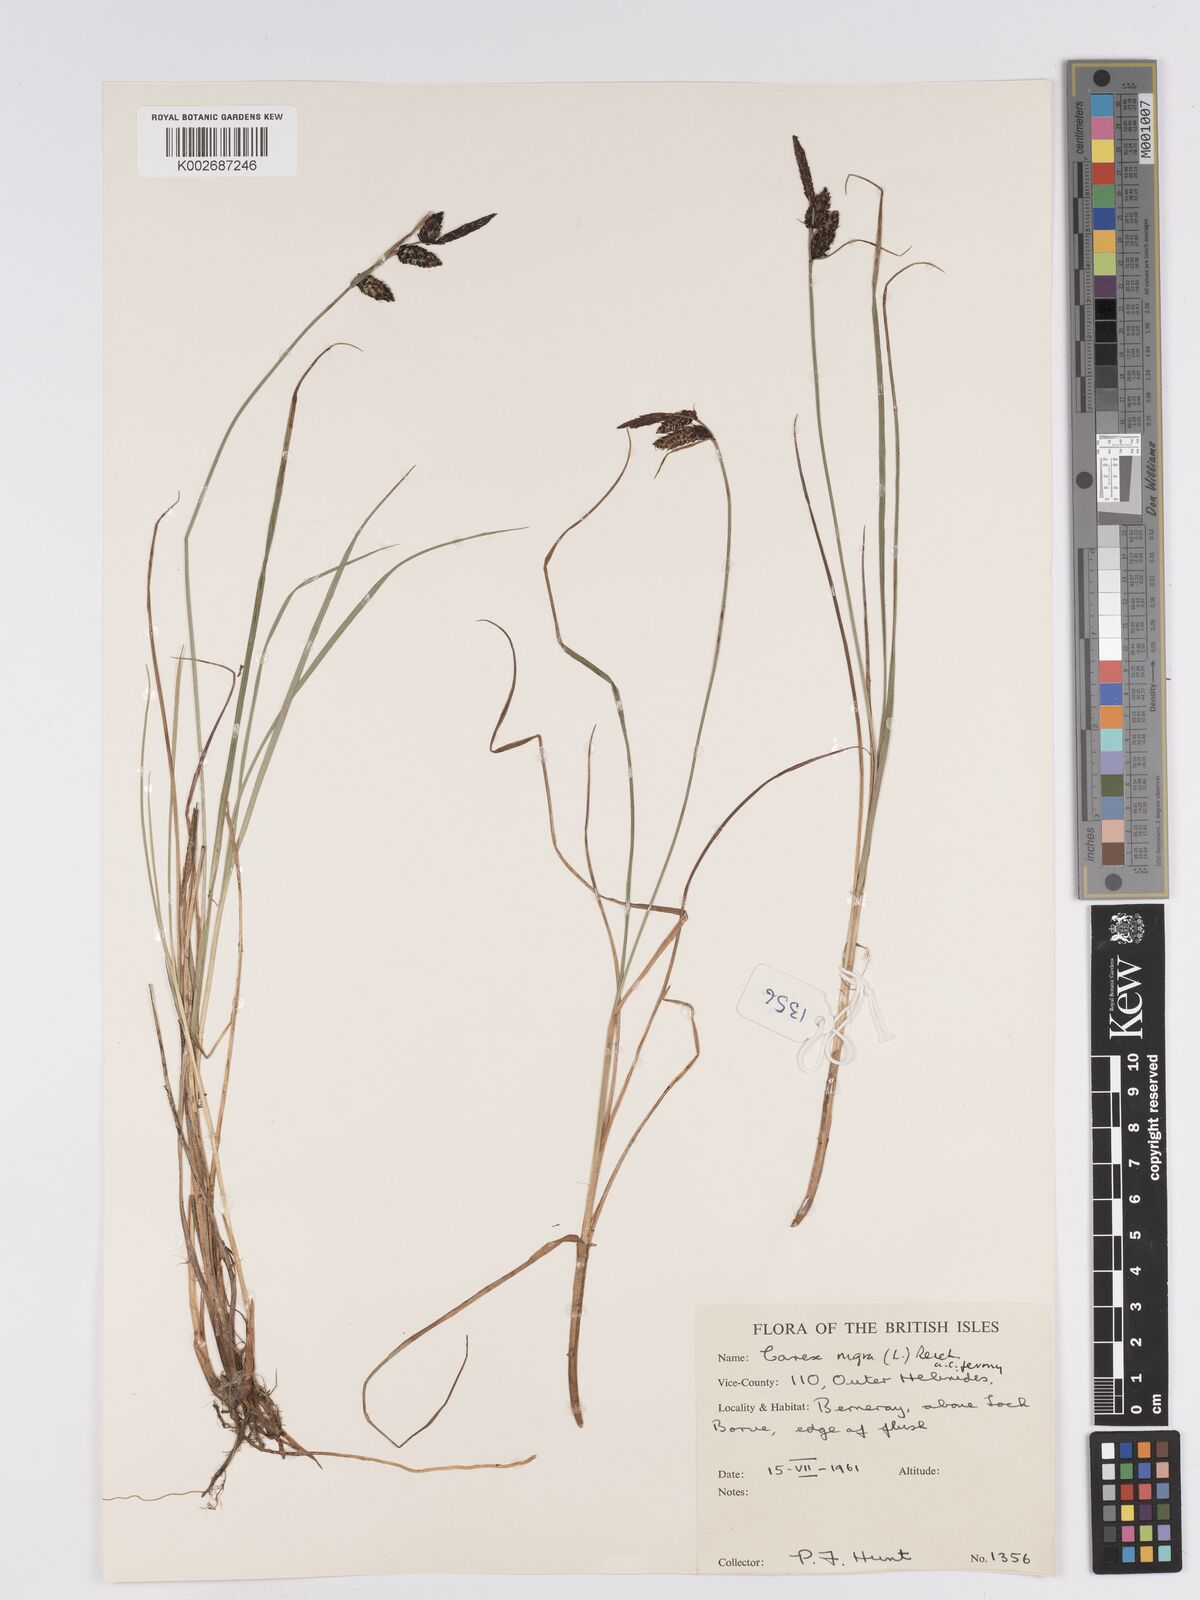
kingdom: Plantae
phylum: Tracheophyta
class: Liliopsida
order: Poales
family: Cyperaceae
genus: Carex
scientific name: Carex nigra
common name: Common sedge
